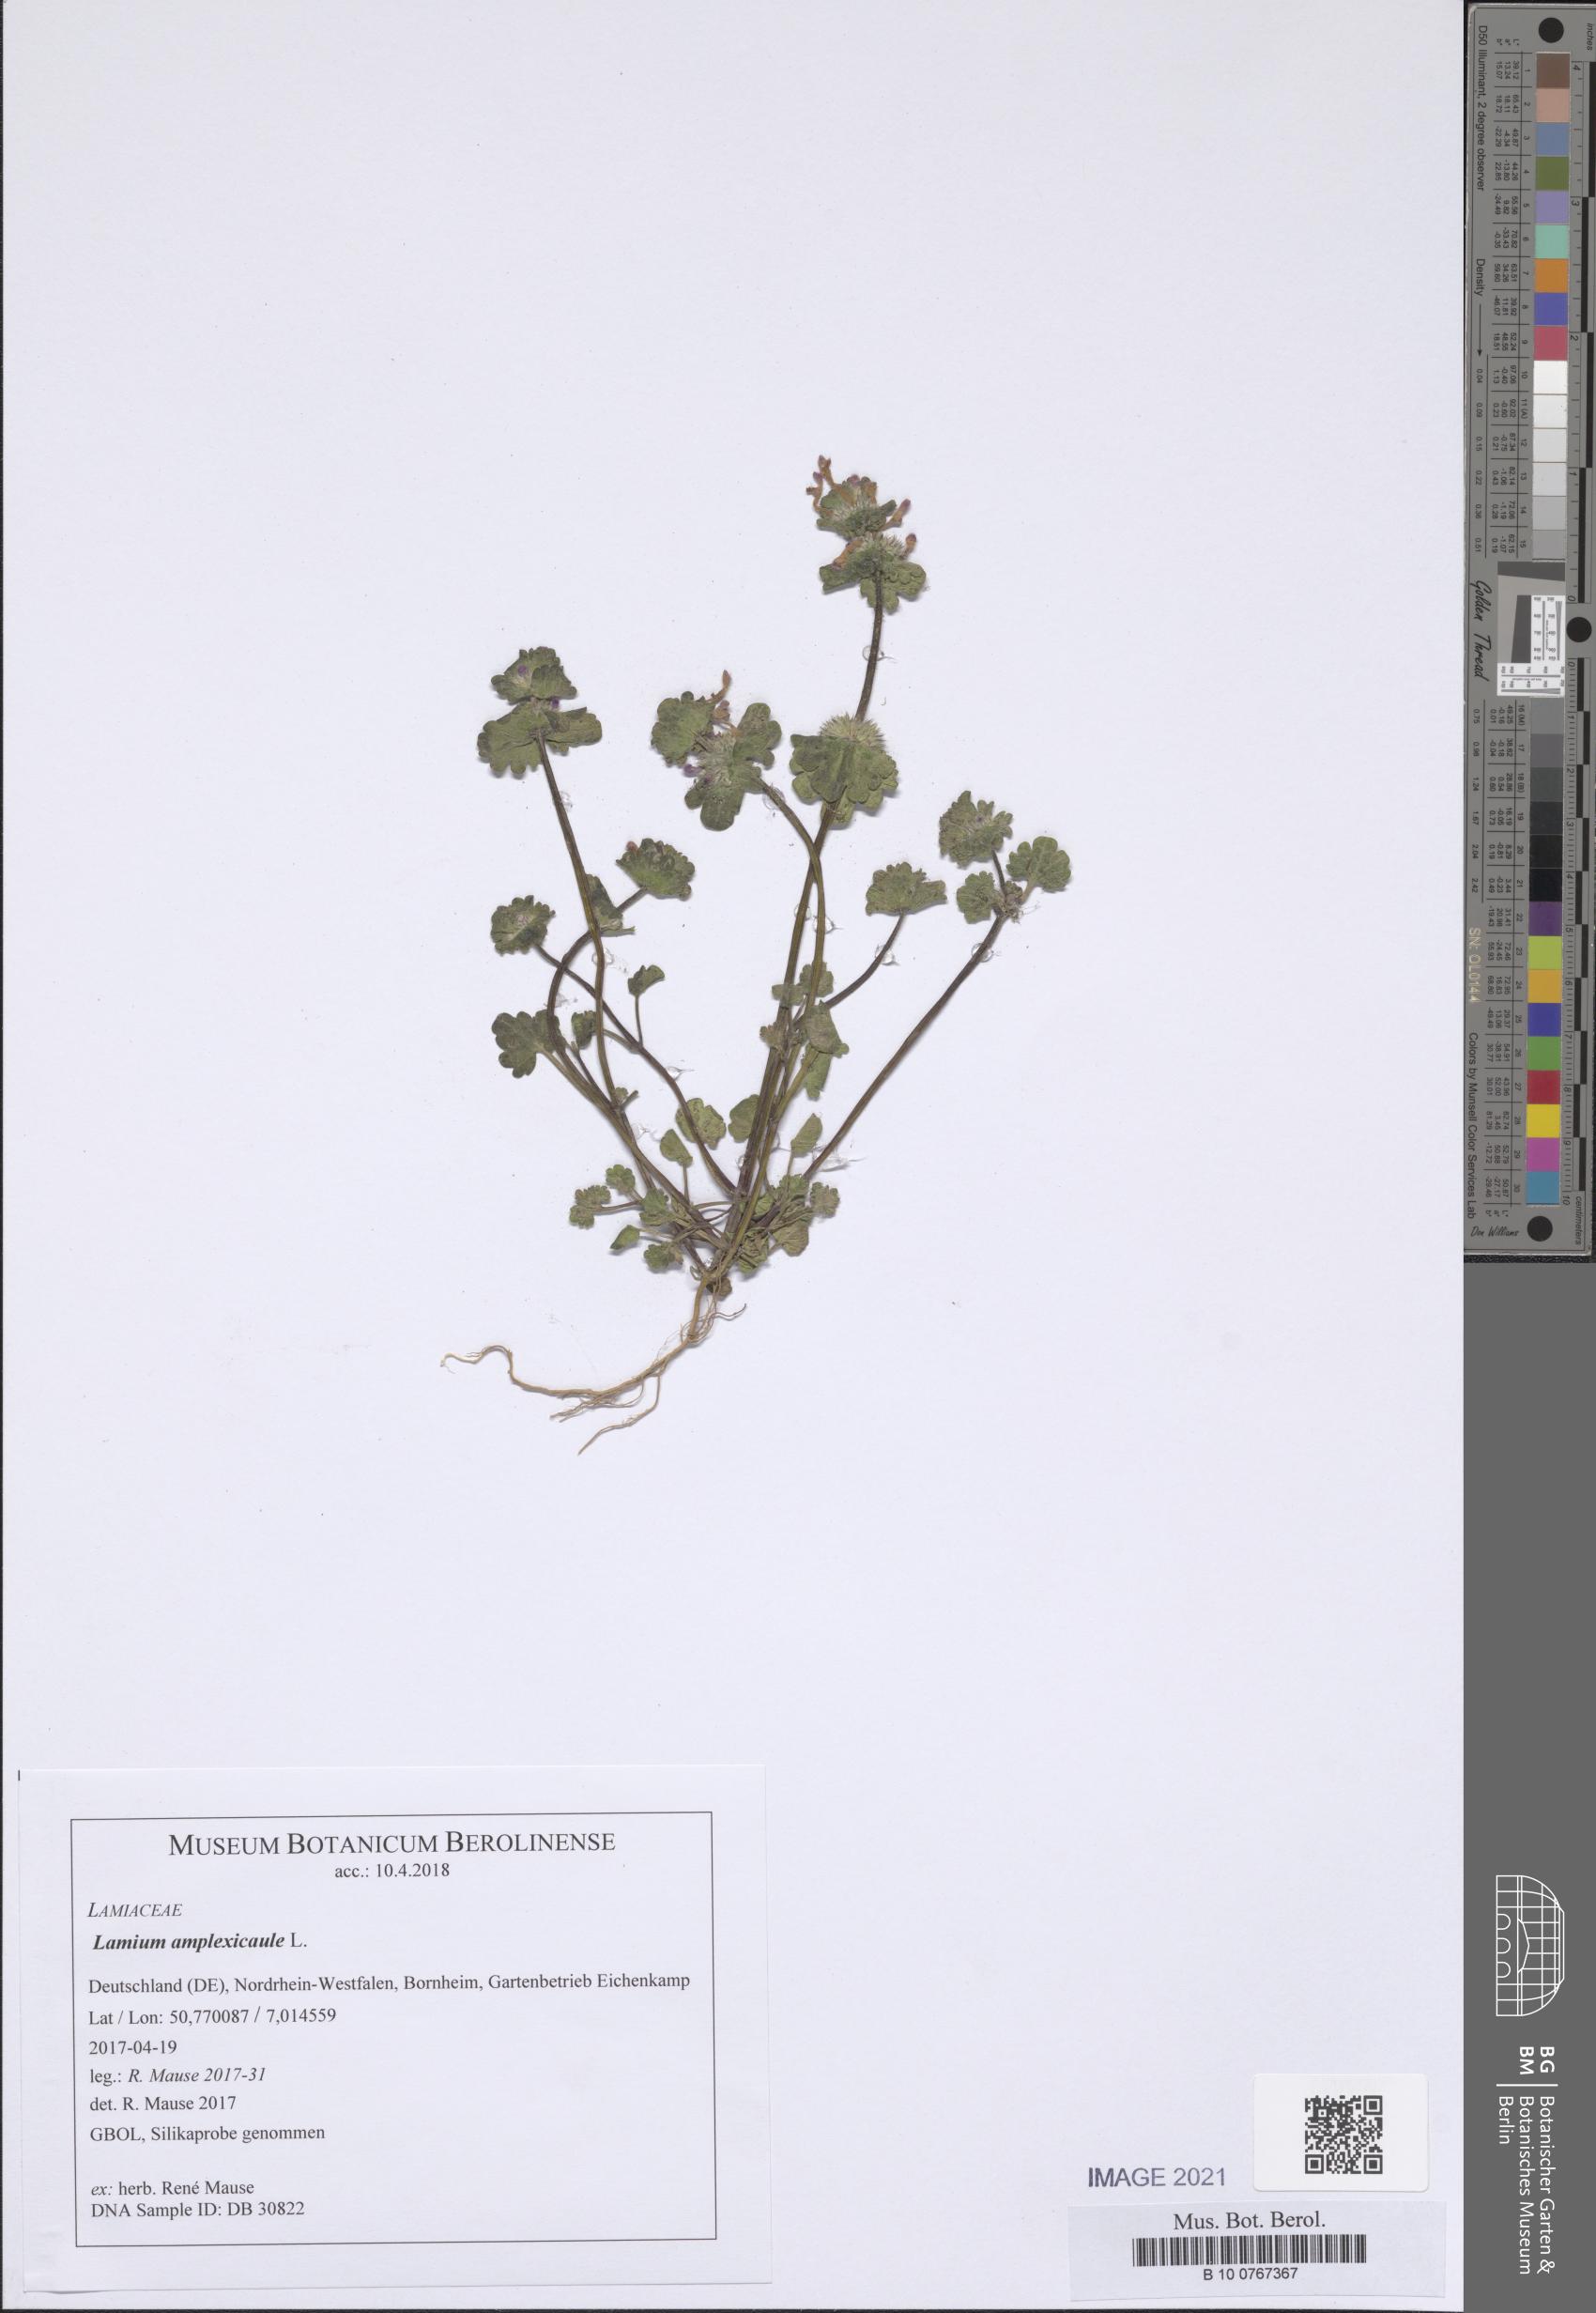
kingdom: Plantae
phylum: Tracheophyta
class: Magnoliopsida
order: Lamiales
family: Lamiaceae
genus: Lamium
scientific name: Lamium amplexicaule
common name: Henbit dead-nettle
